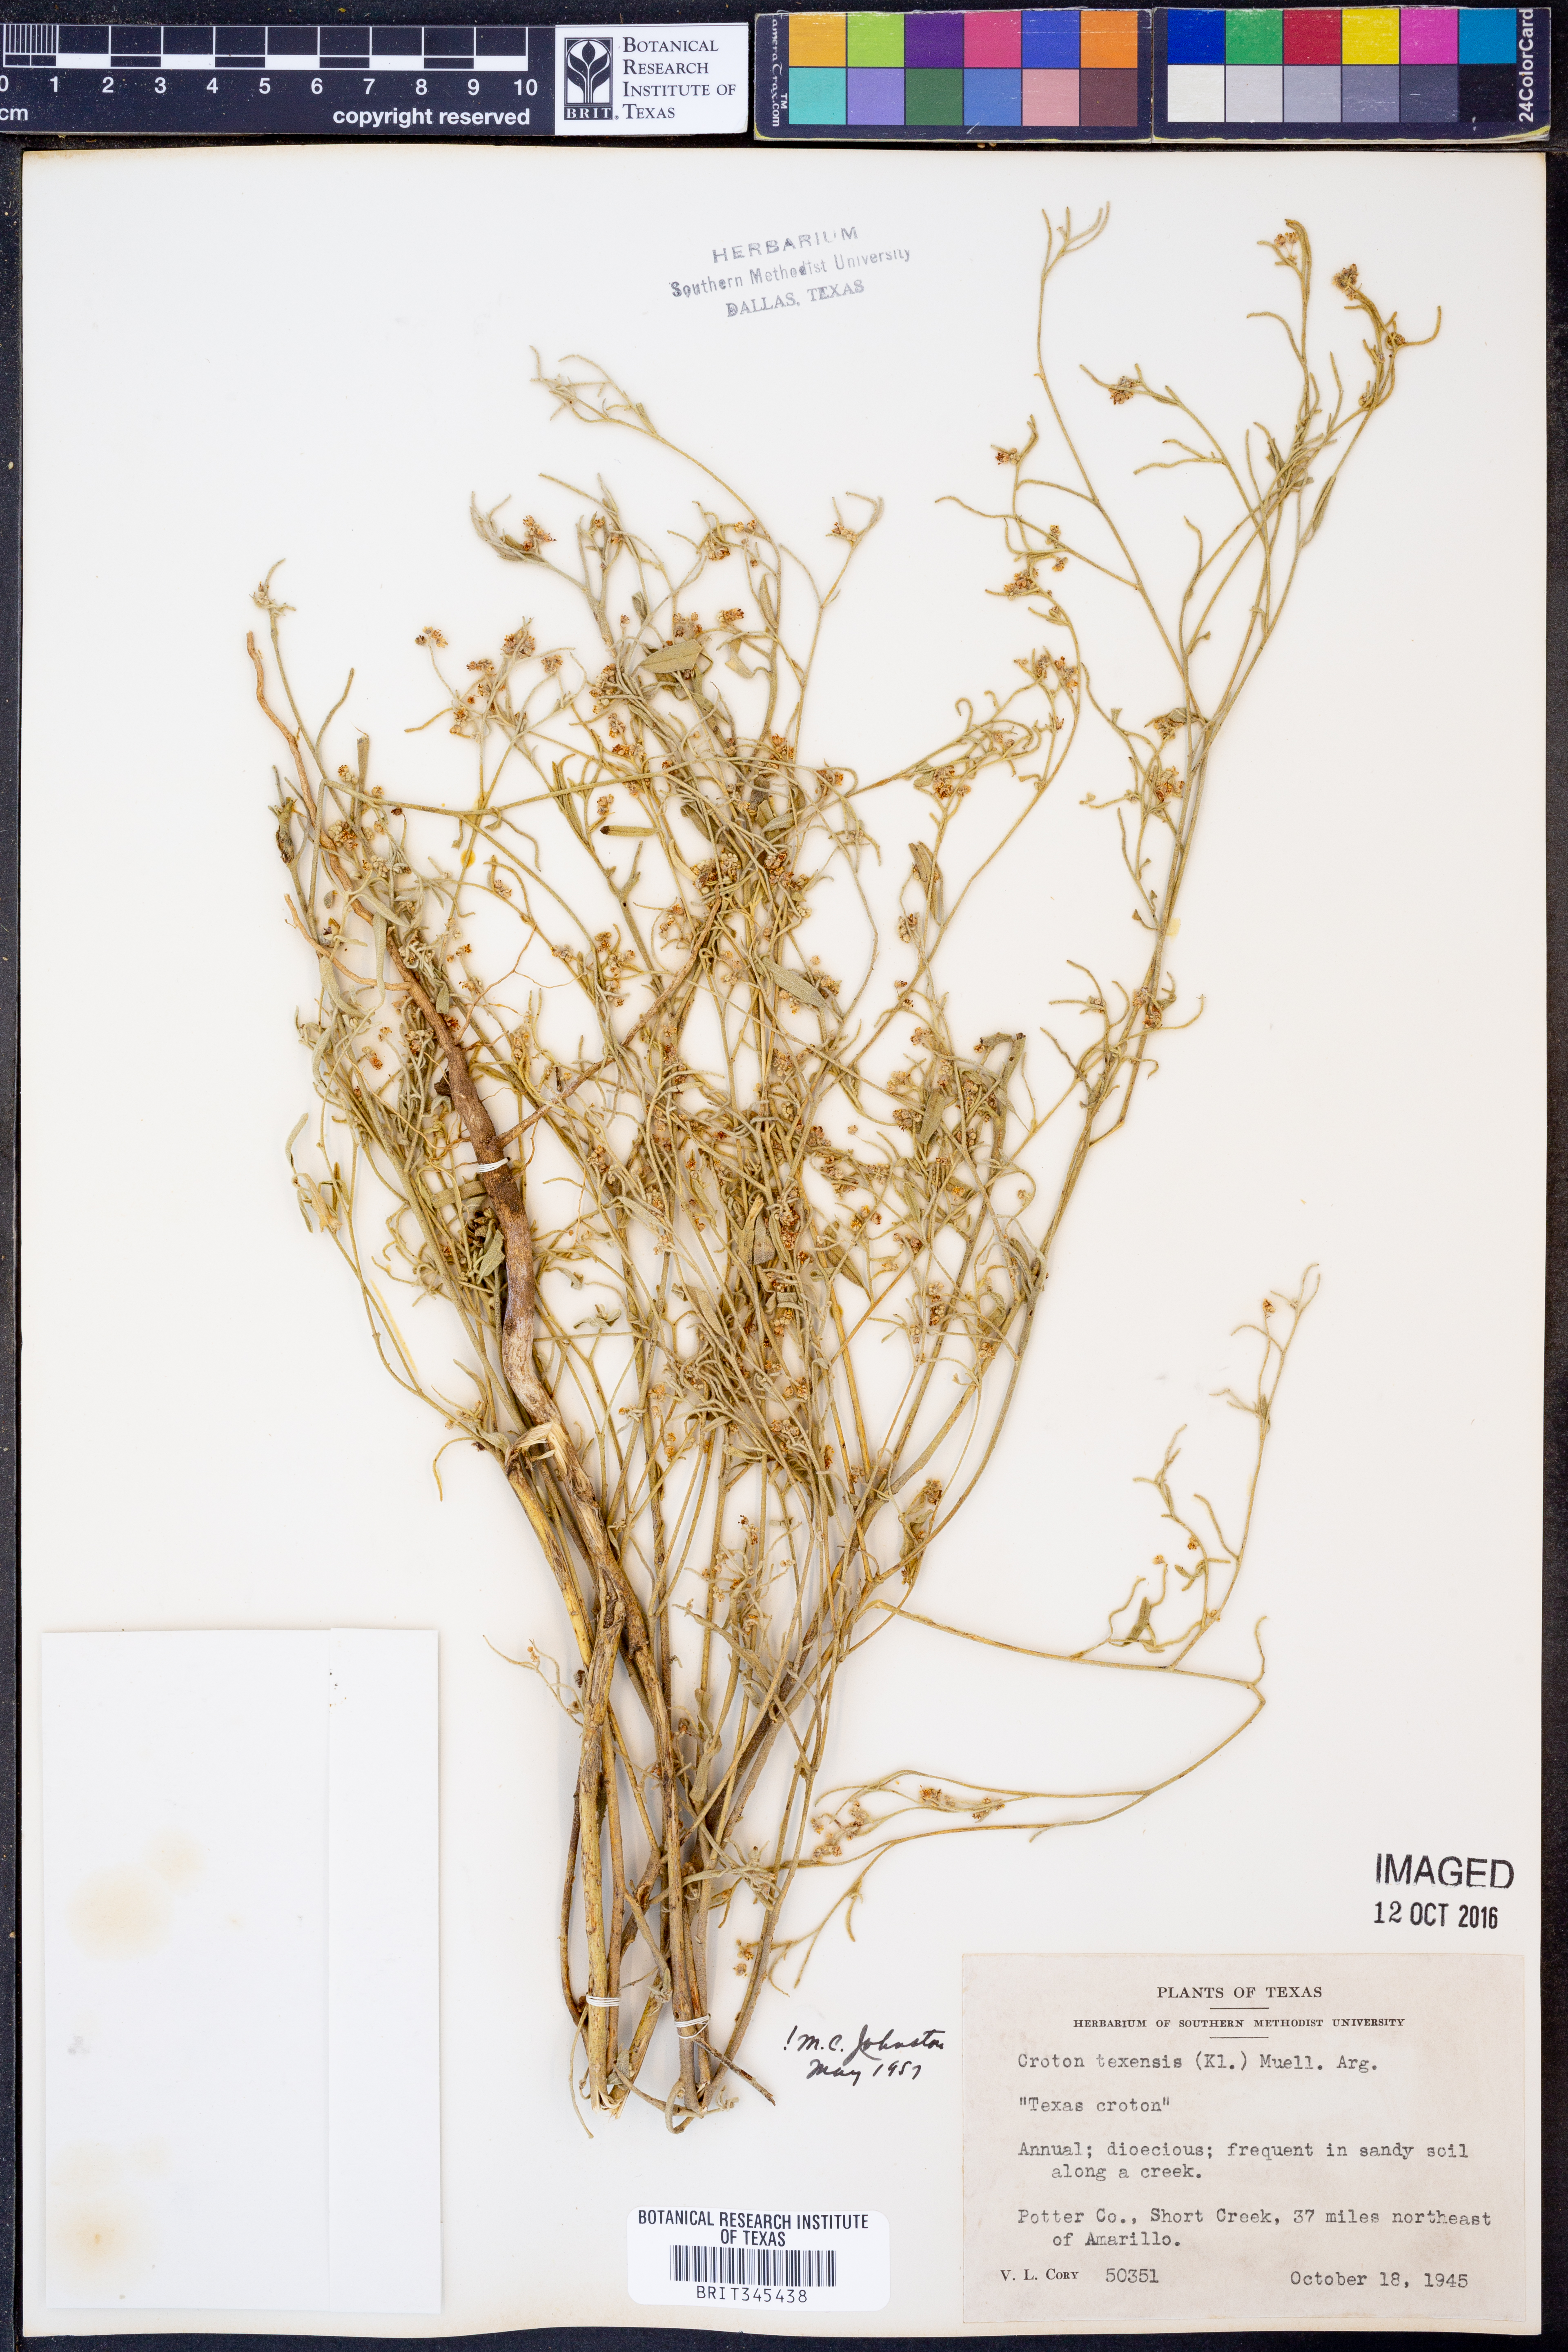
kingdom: Plantae
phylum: Tracheophyta
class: Magnoliopsida
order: Malpighiales
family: Euphorbiaceae
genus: Croton
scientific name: Croton texensis
